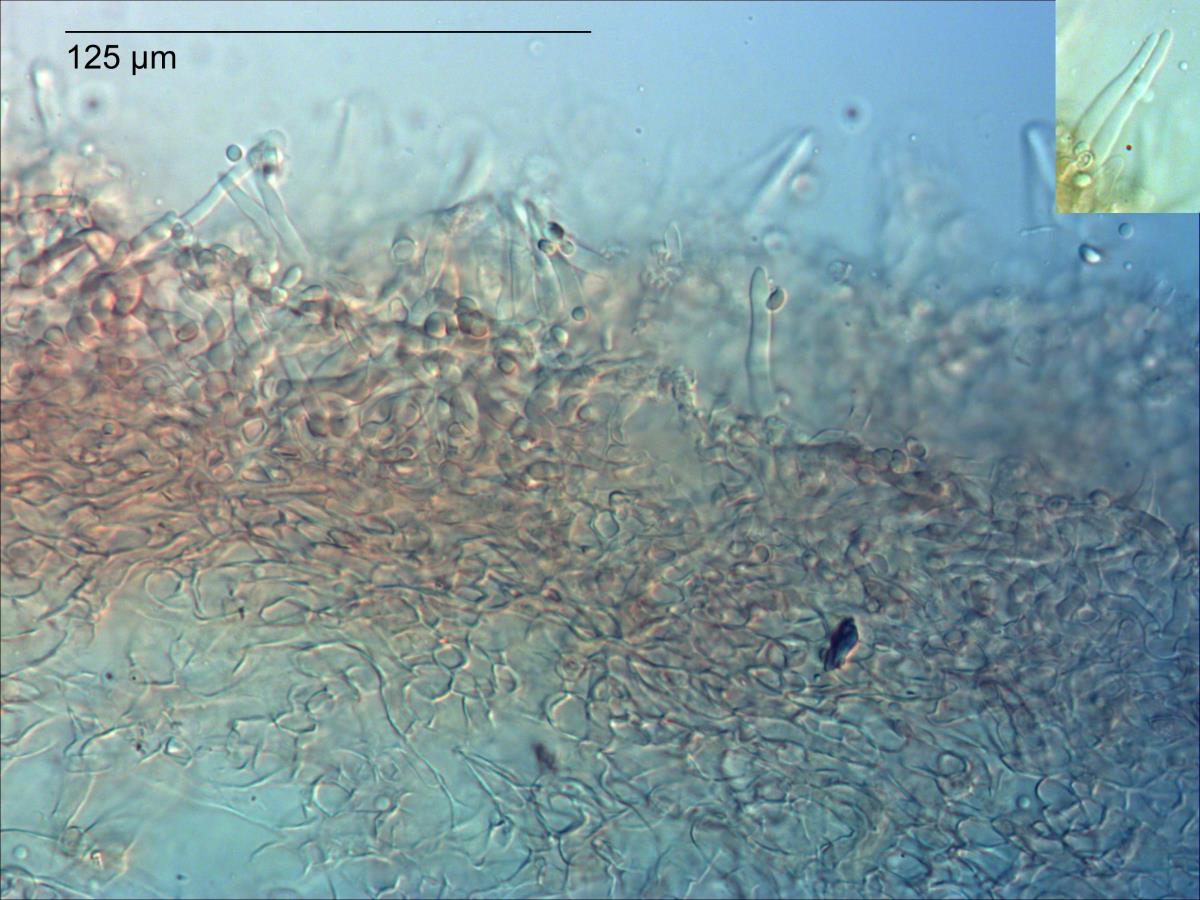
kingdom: Fungi
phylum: Basidiomycota
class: Agaricomycetes
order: Agaricales
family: Omphalotaceae
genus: Rhodocollybia
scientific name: Rhodocollybia
